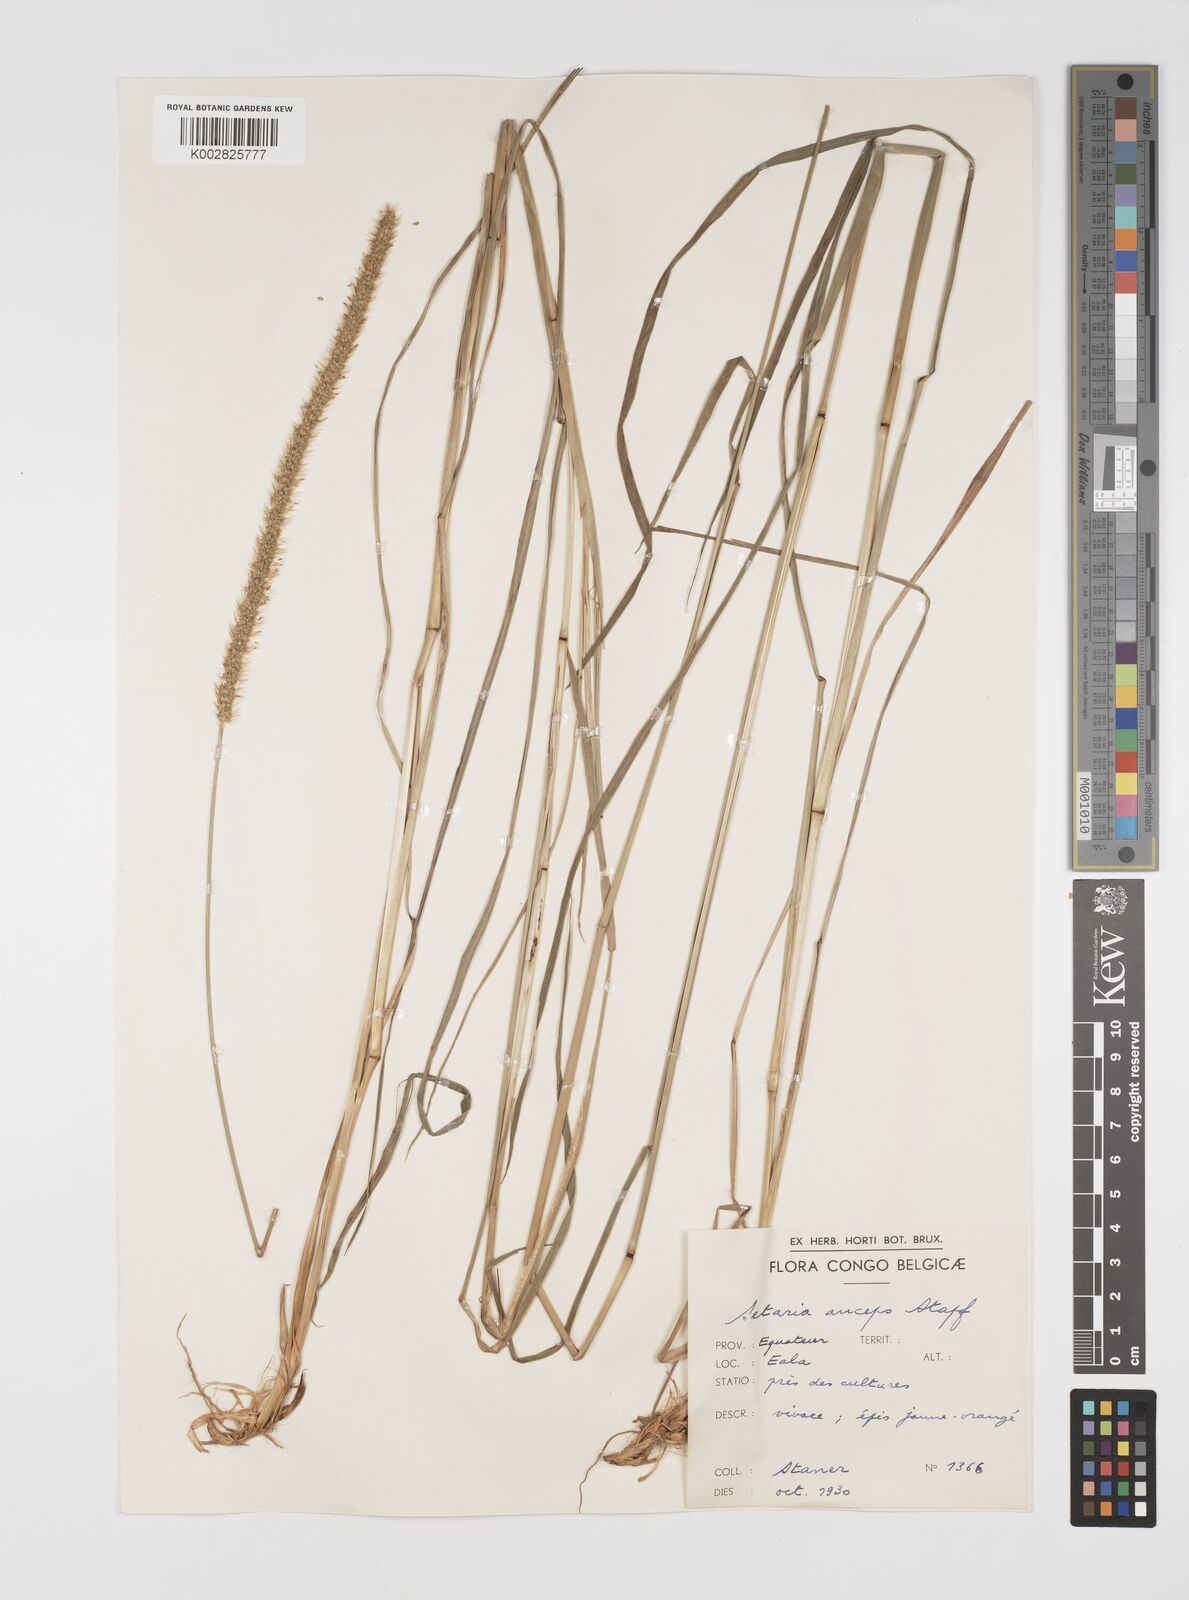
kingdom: Plantae
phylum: Tracheophyta
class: Liliopsida
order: Poales
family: Poaceae
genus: Setaria
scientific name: Setaria sphacelata
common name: African bristlegrass
